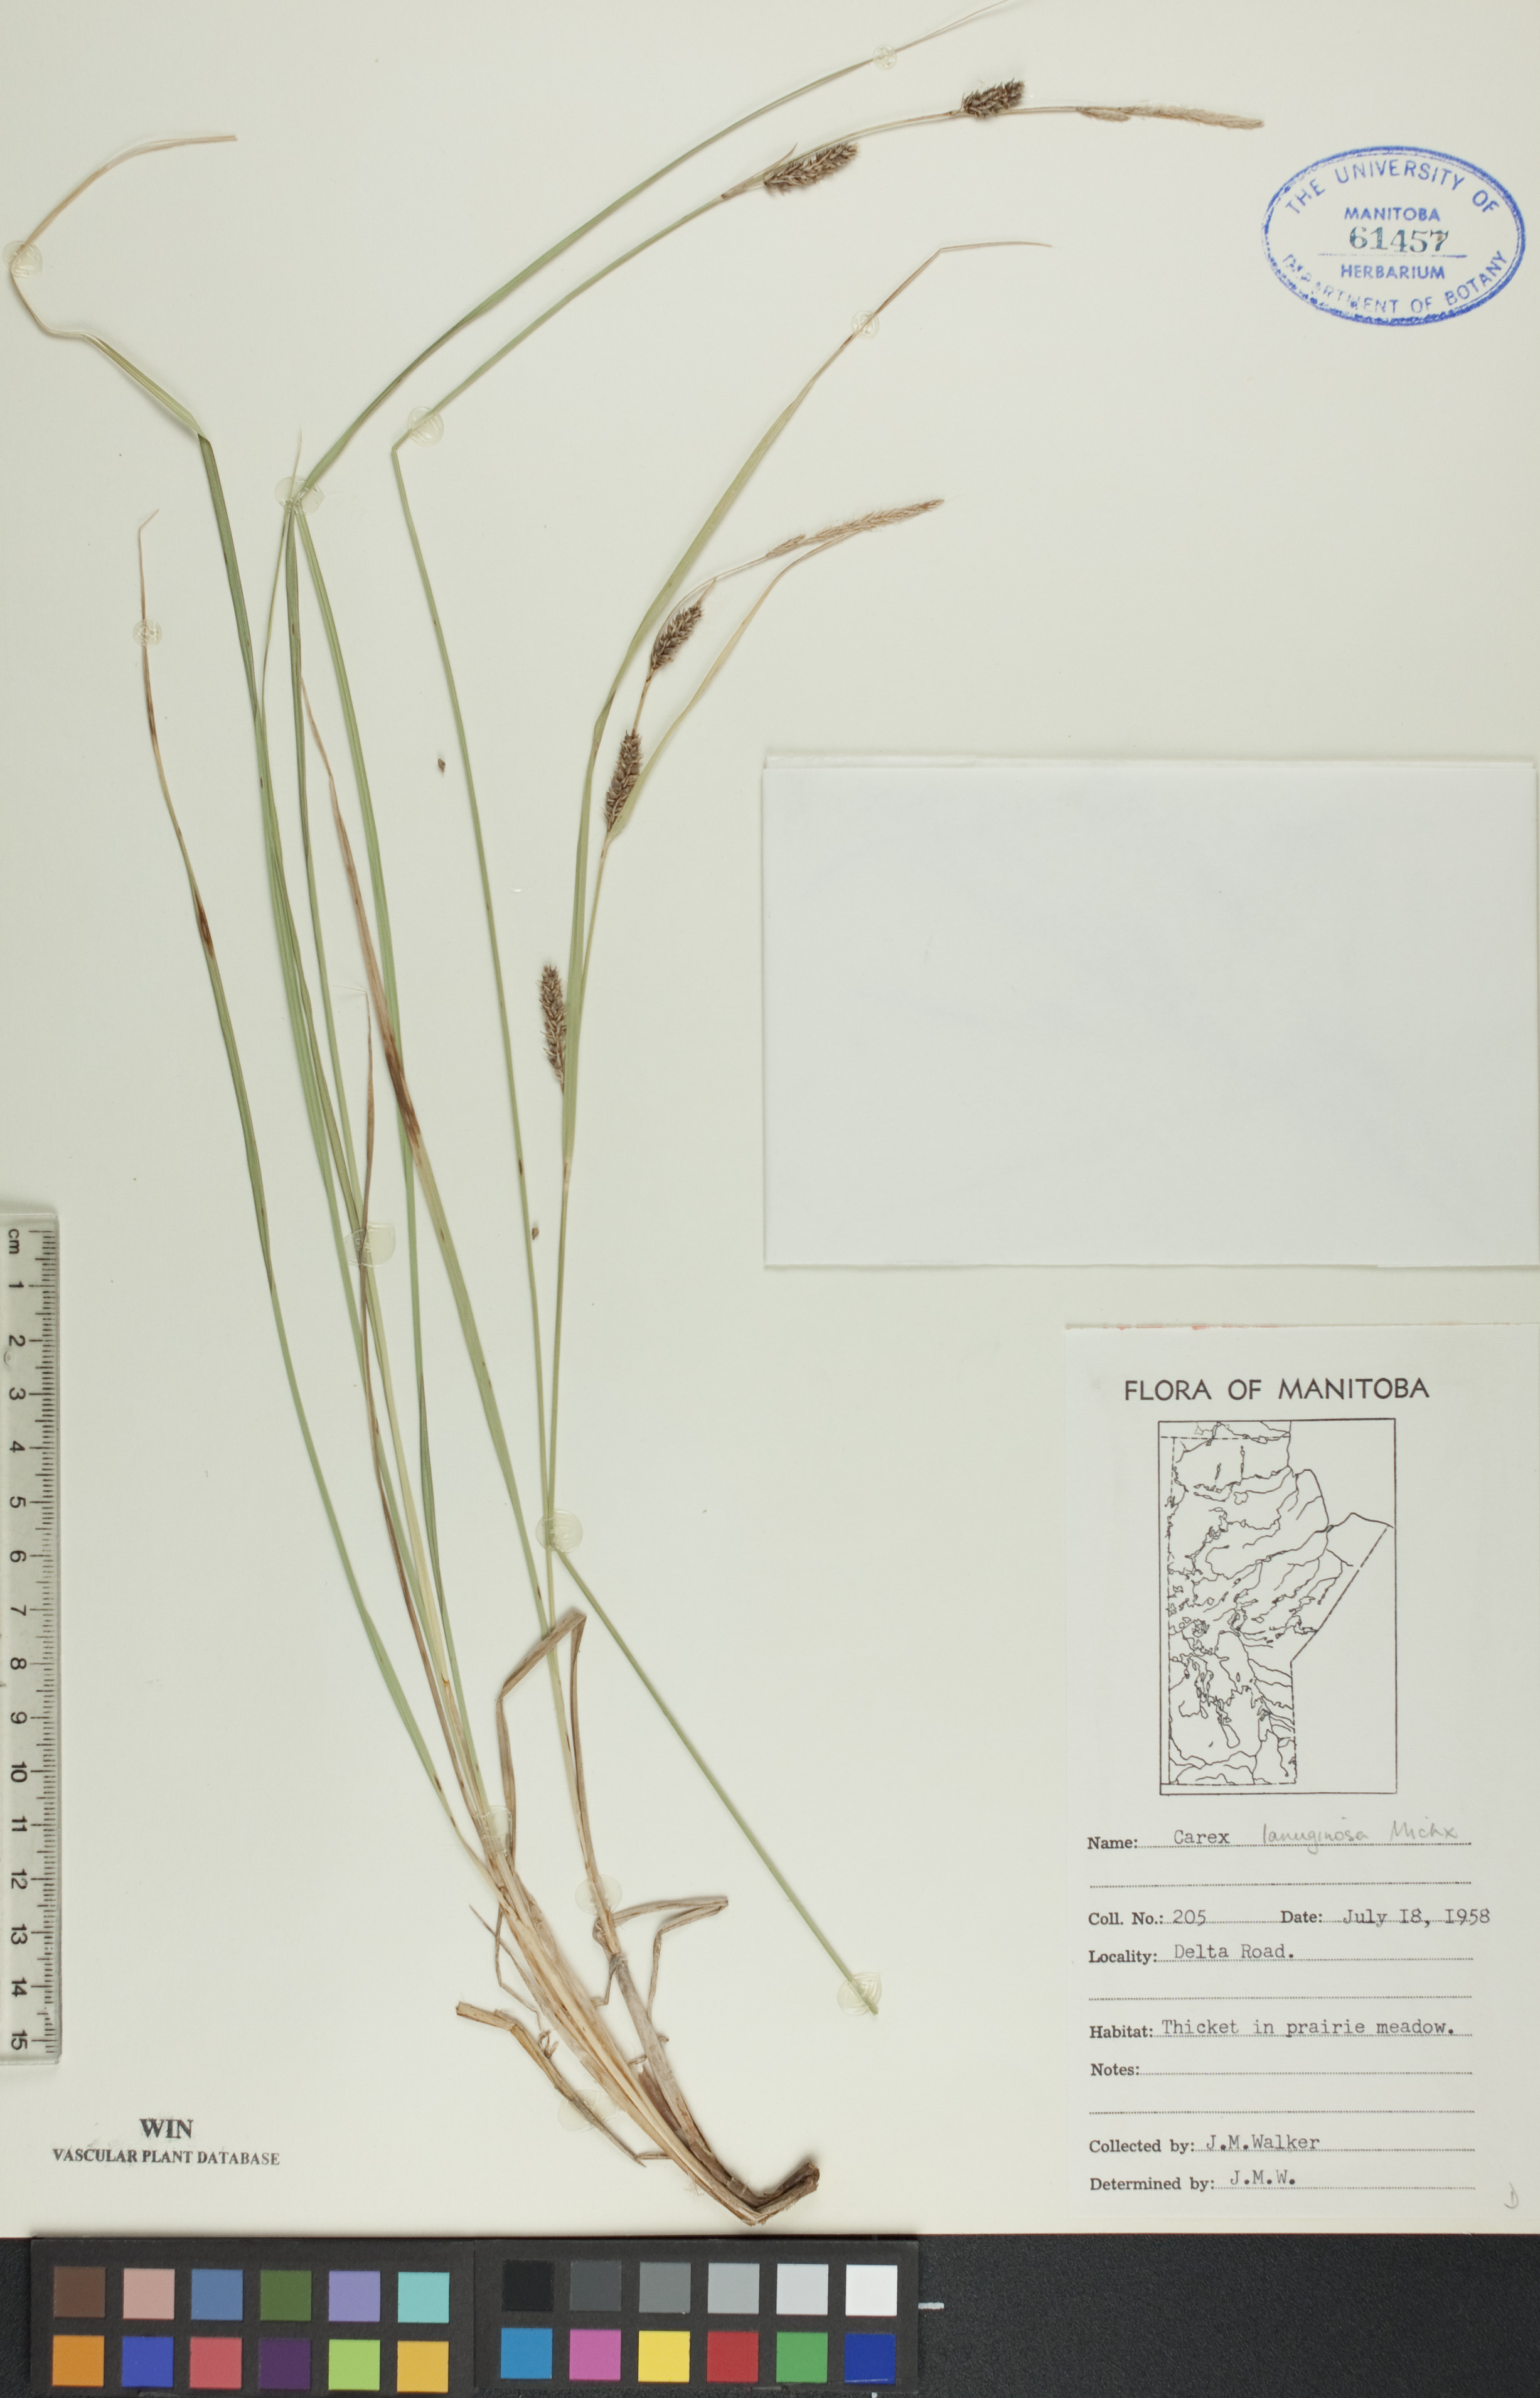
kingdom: Plantae
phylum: Tracheophyta
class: Liliopsida
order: Poales
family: Cyperaceae
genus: Carex
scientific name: Carex lasiocarpa
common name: Slender sedge
